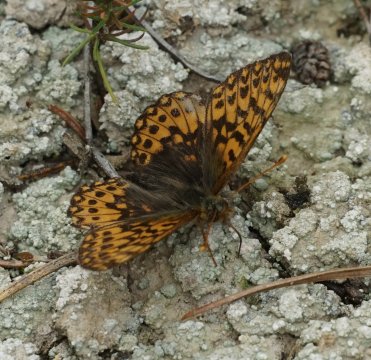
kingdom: Animalia
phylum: Arthropoda
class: Insecta
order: Lepidoptera
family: Nymphalidae
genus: Boloria
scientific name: Boloria freija
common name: Freija Fritillary
